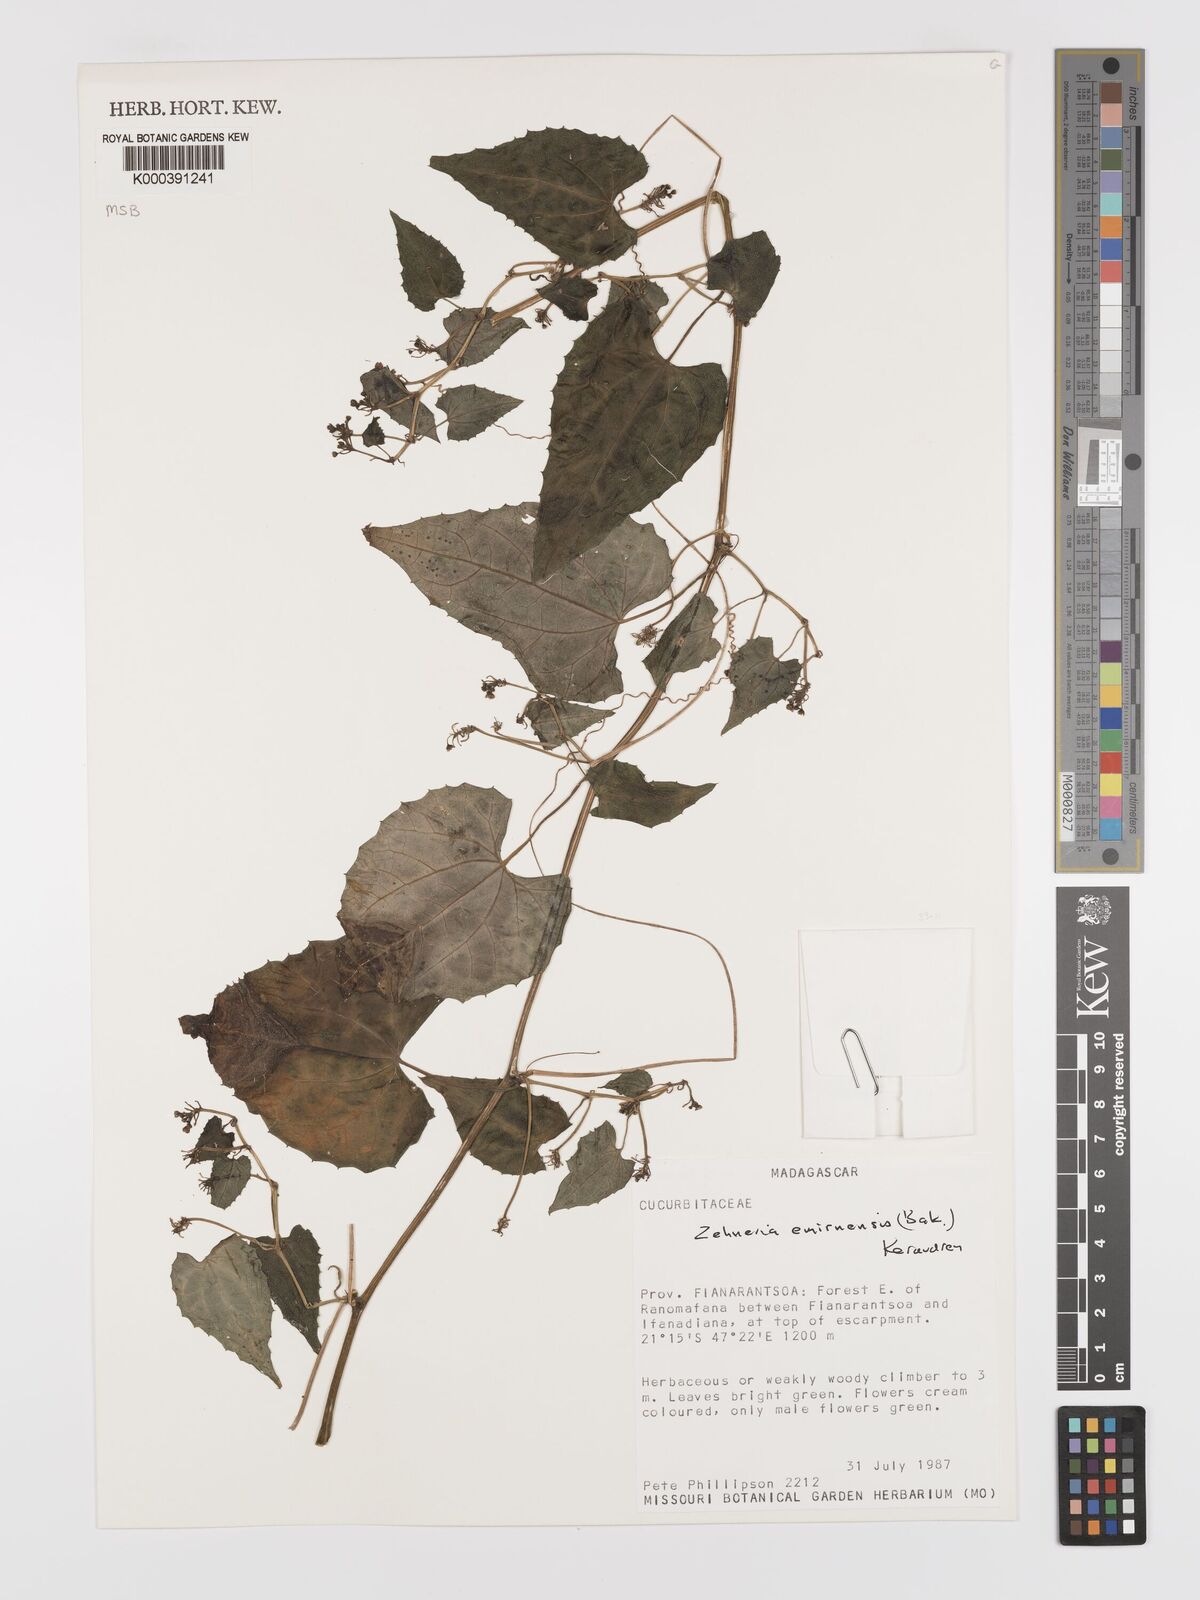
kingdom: Plantae
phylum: Tracheophyta
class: Magnoliopsida
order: Cucurbitales
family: Cucurbitaceae
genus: Zehneria
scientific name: Zehneria emirnensis
